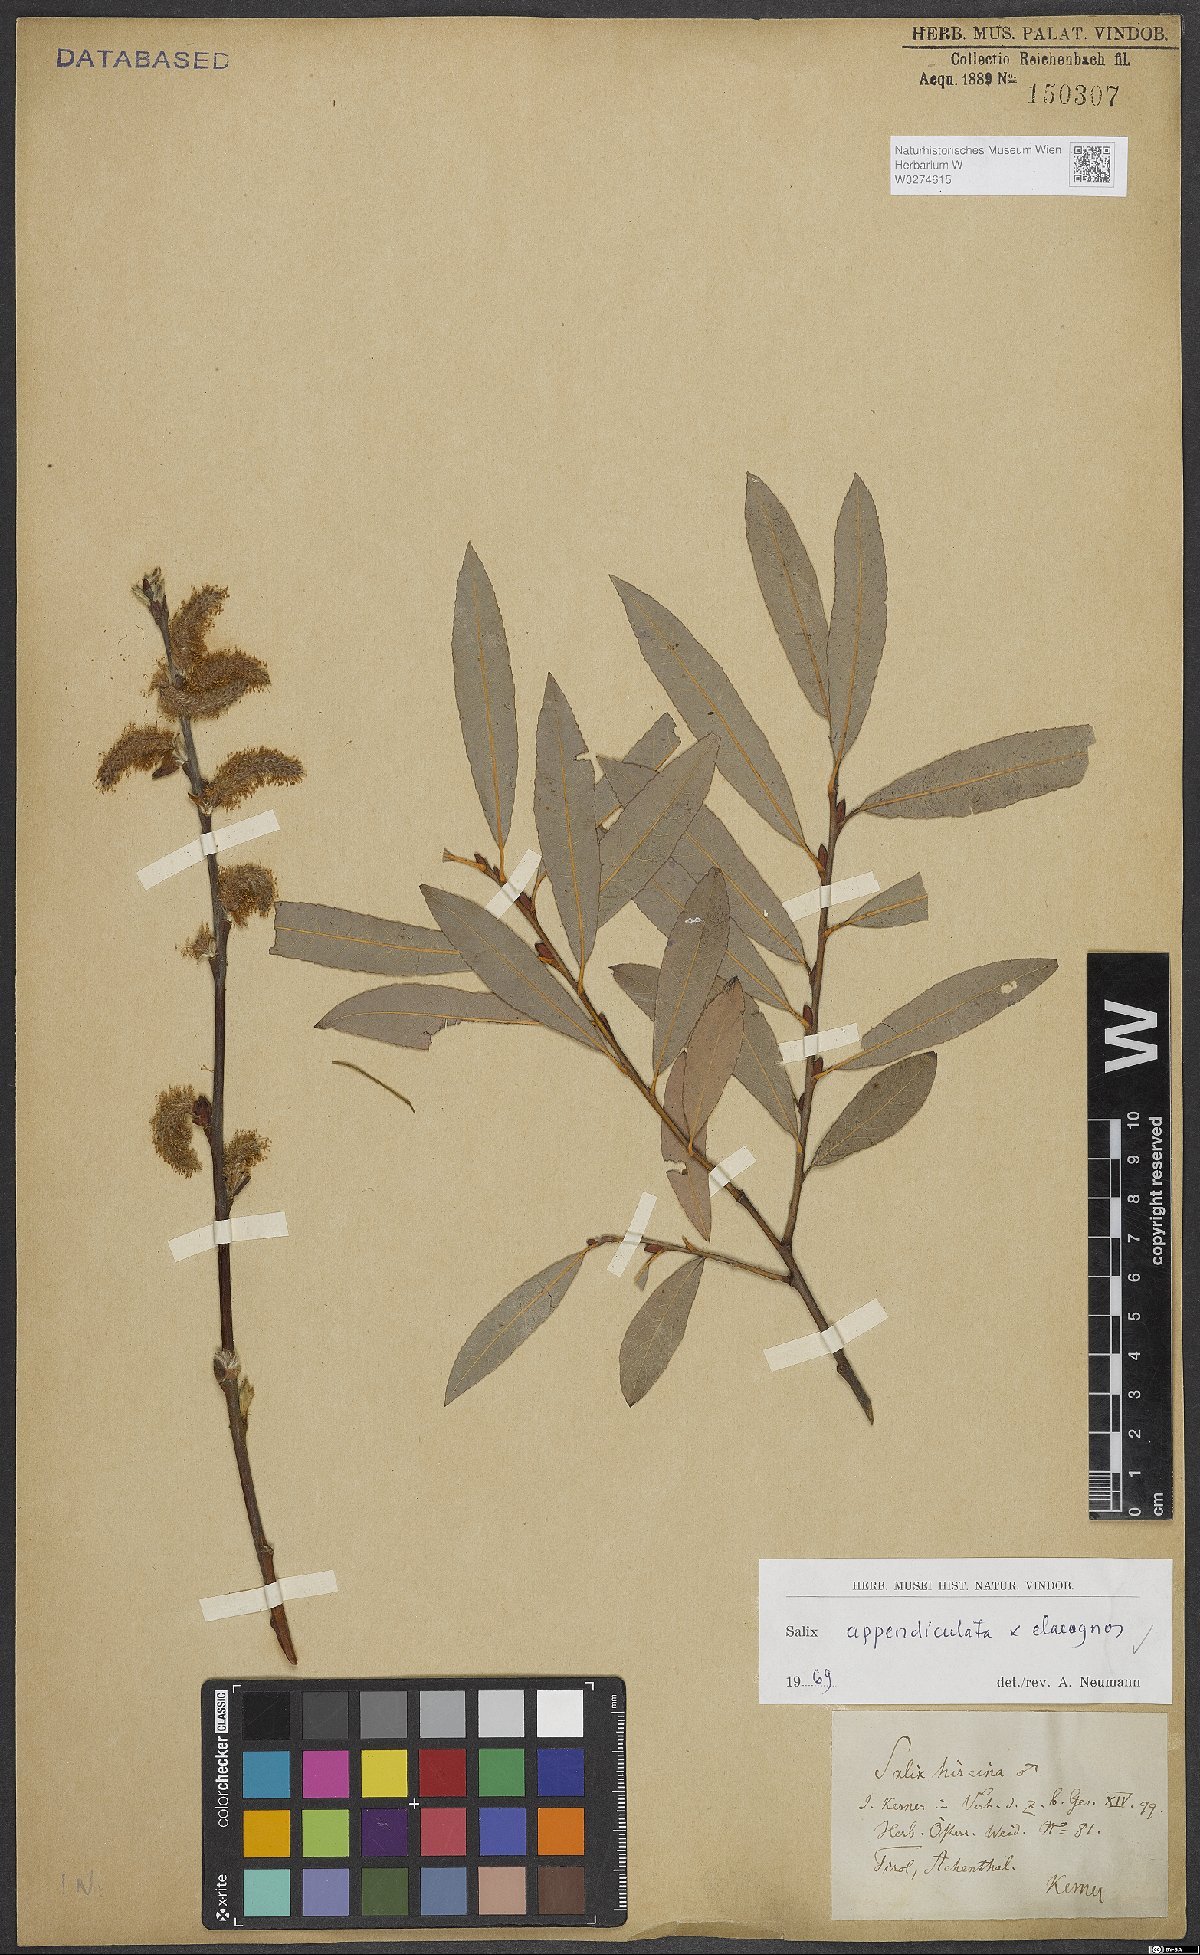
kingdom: Plantae
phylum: Tracheophyta
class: Magnoliopsida
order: Malpighiales
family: Salicaceae
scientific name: Salicaceae
